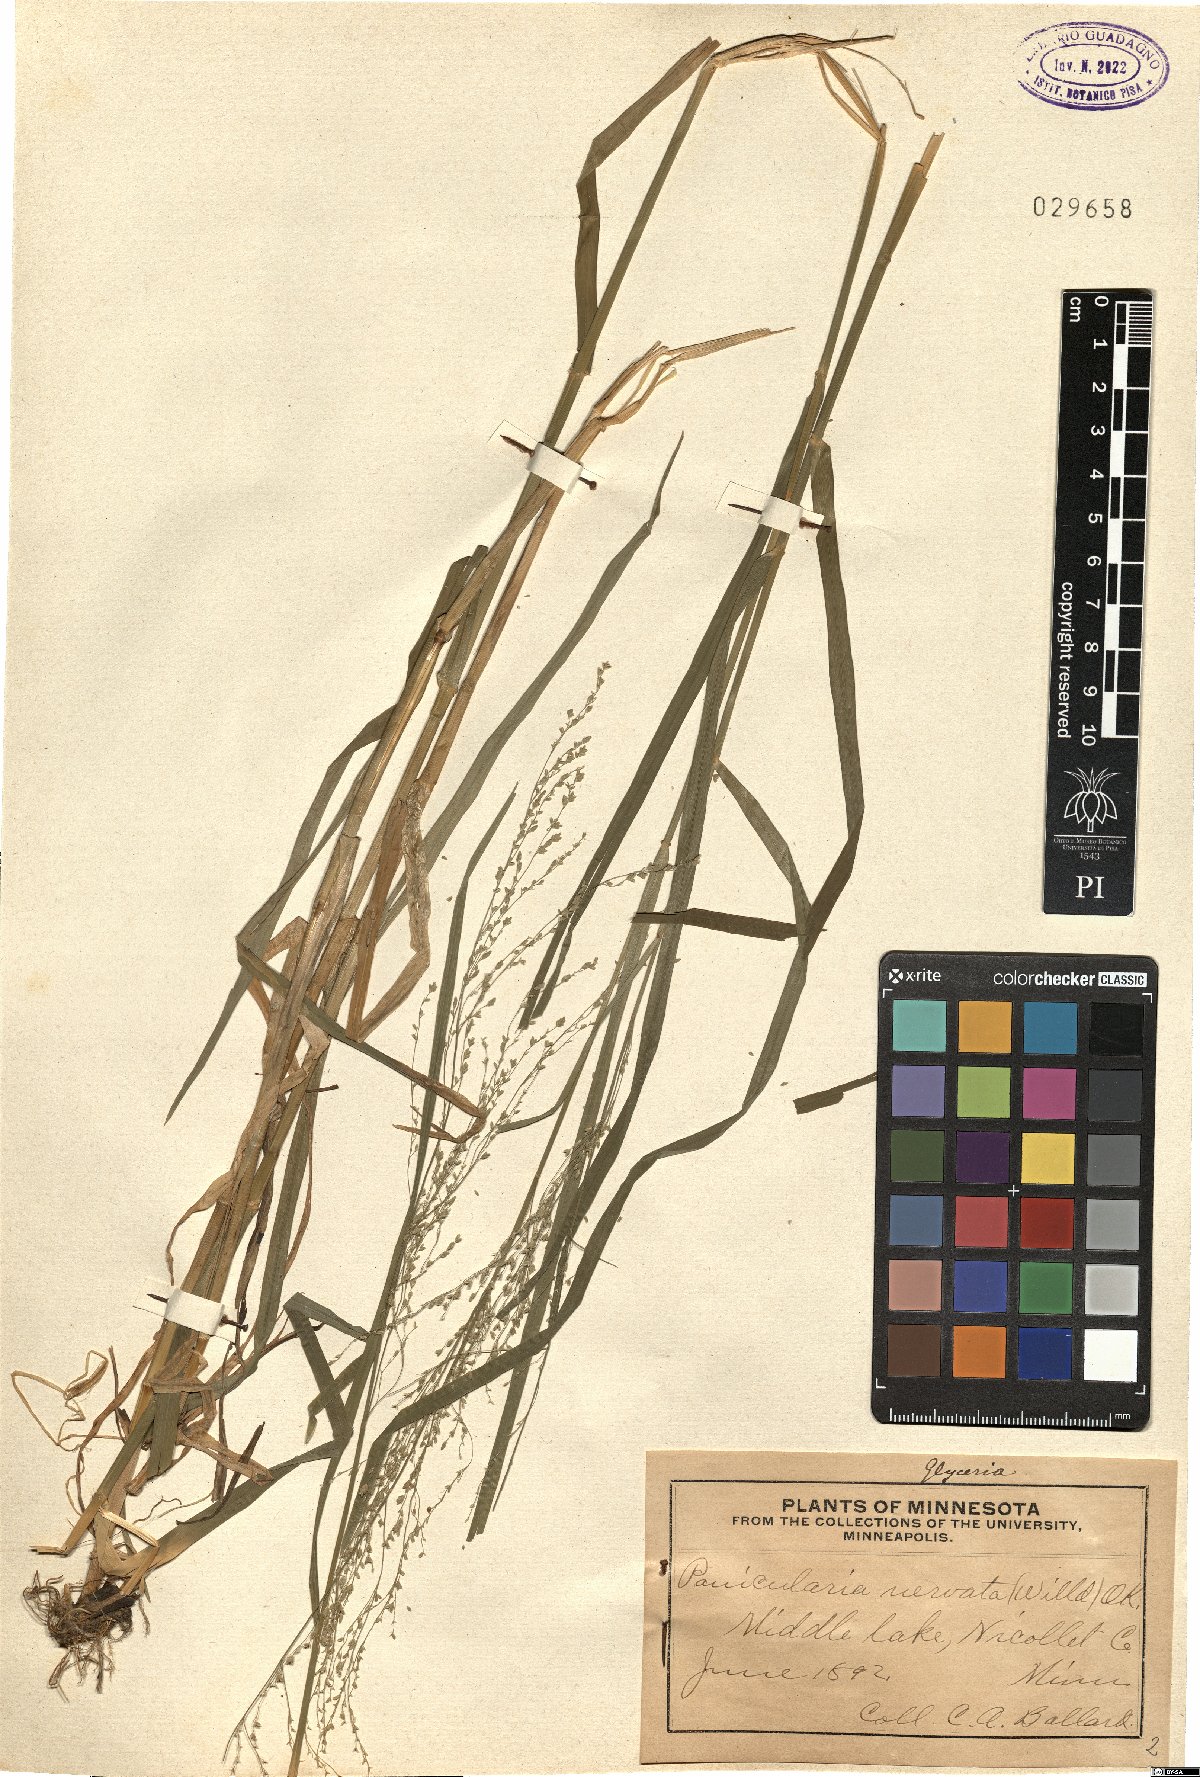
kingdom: Plantae
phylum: Tracheophyta
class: Liliopsida
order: Poales
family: Poaceae
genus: Glyceria
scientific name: Glyceria striata
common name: Fowl manna grass
